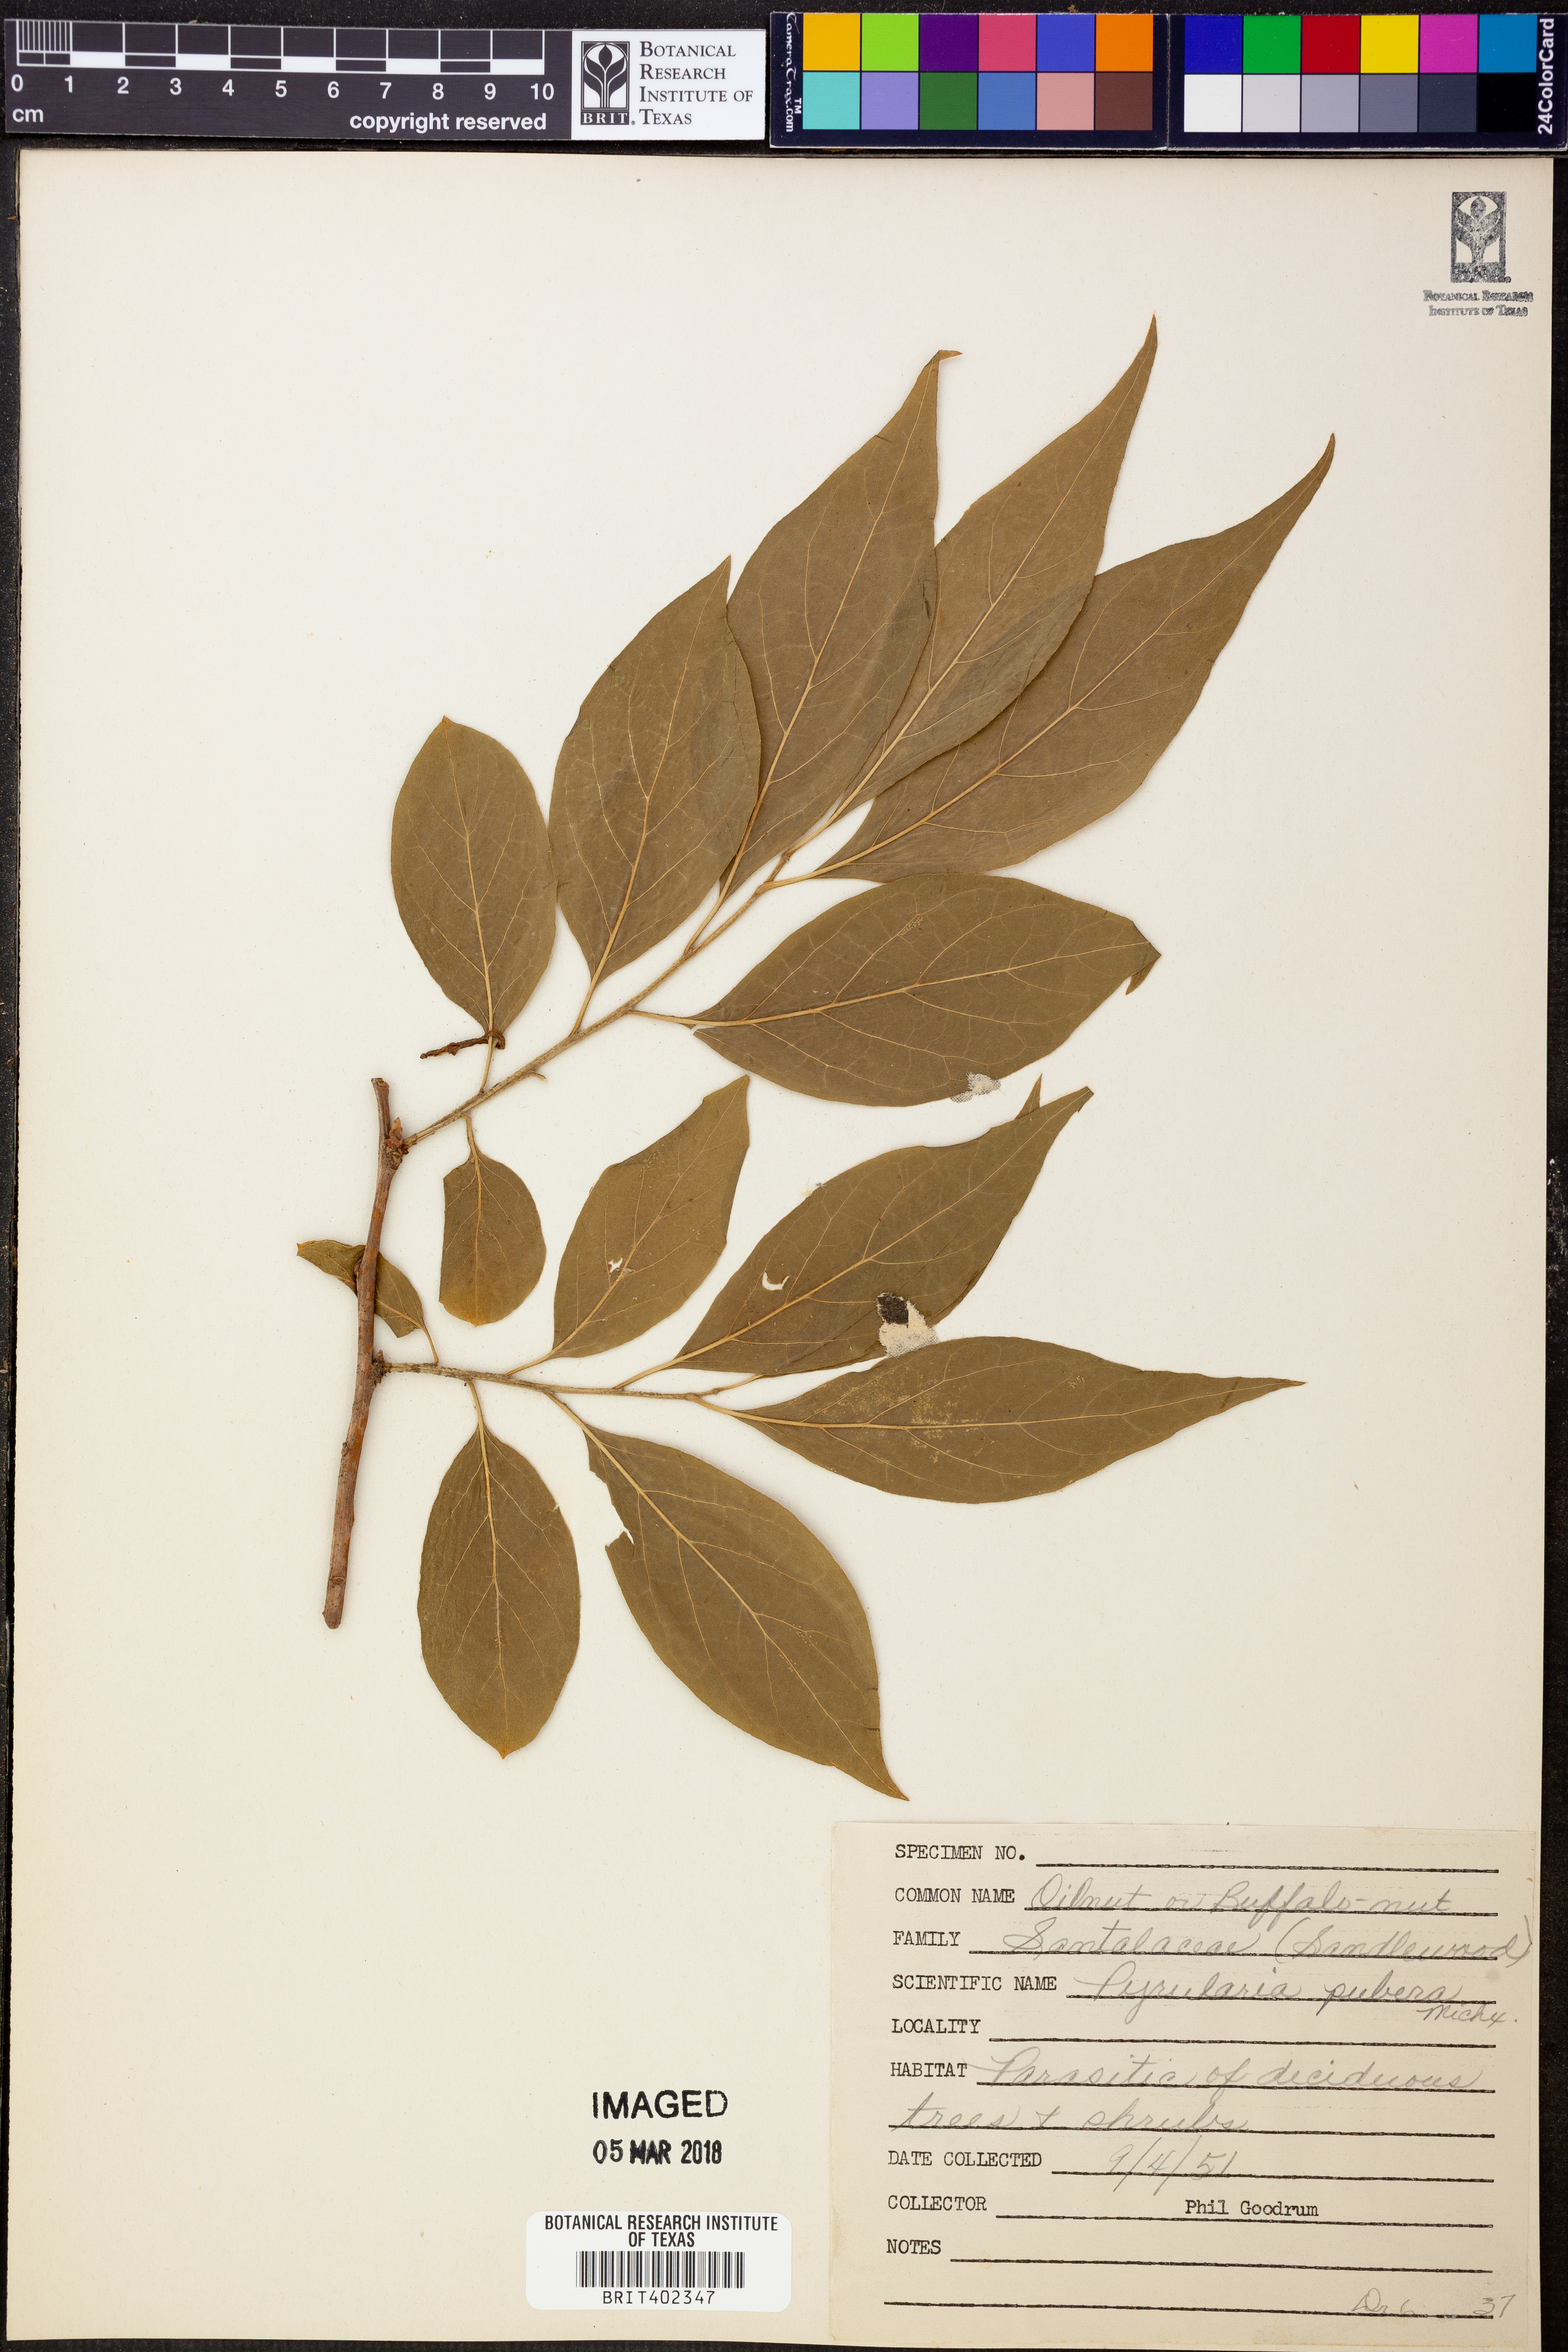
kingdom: Plantae
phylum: Tracheophyta
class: Magnoliopsida
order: Santalales
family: Cervantesiaceae
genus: Pyrularia
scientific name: Pyrularia pubera
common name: Oilnut
